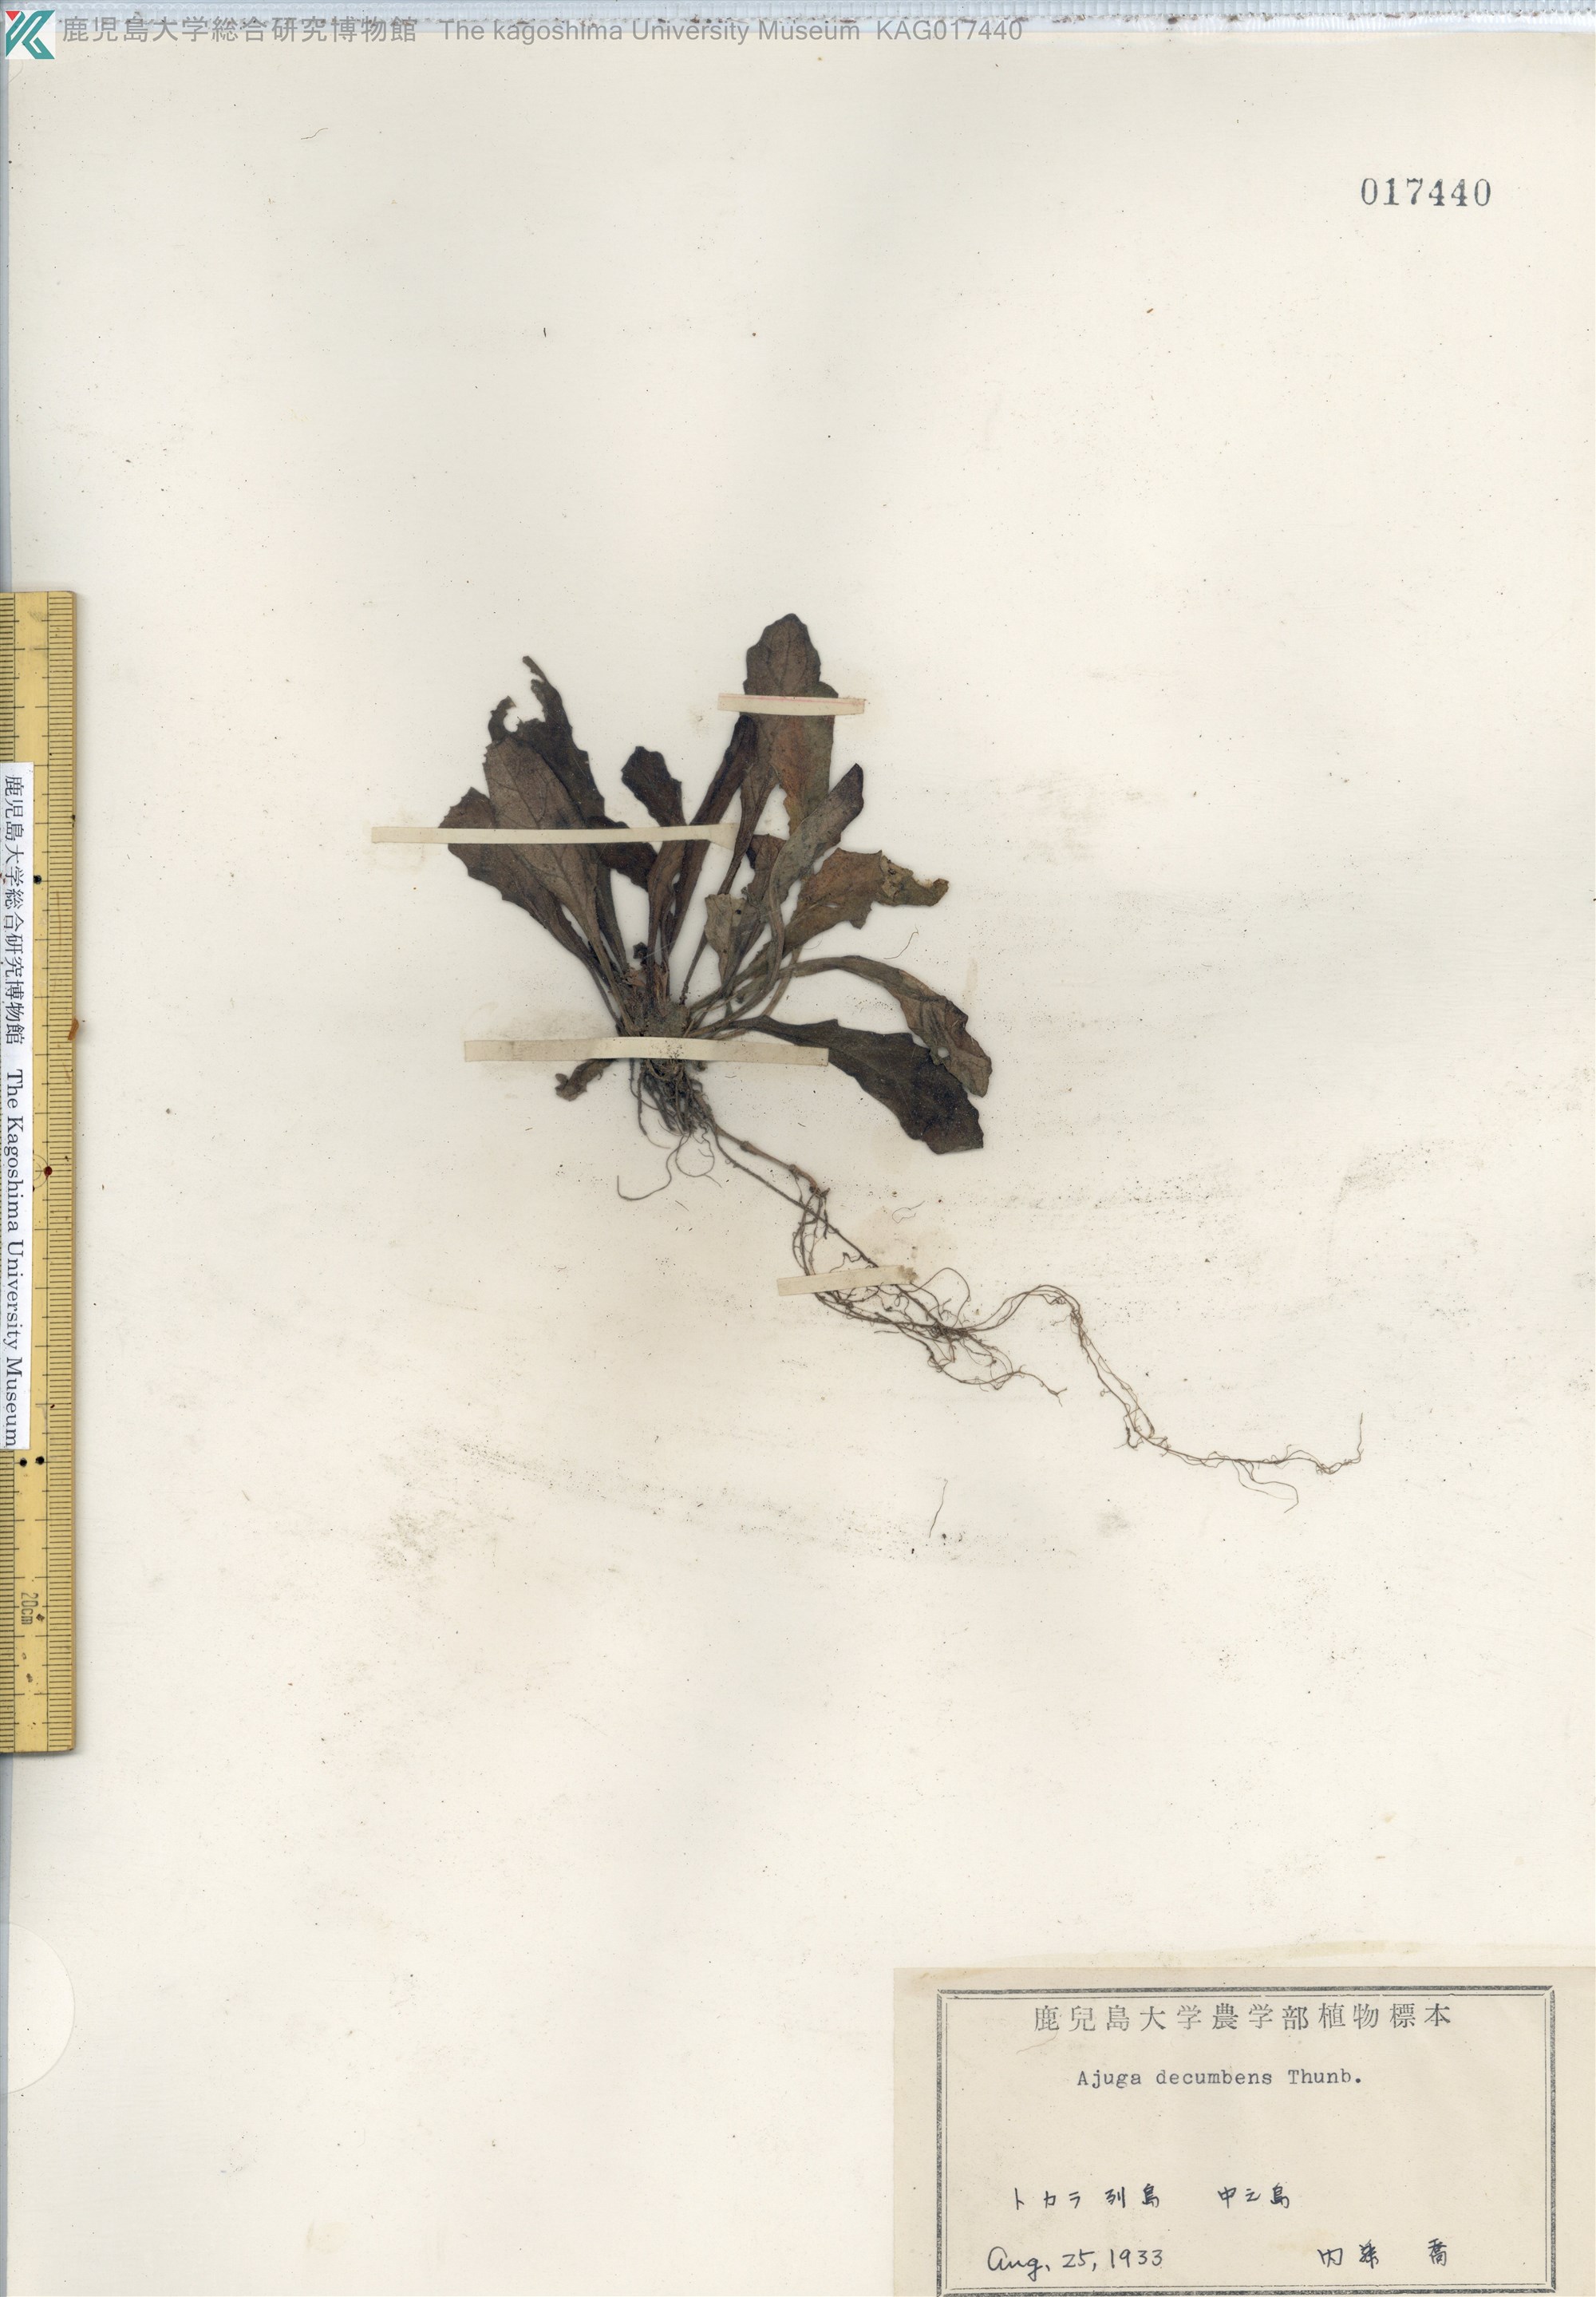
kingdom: Plantae
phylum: Tracheophyta
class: Magnoliopsida
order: Lamiales
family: Lamiaceae
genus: Ajuga
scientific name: Ajuga decumbens
